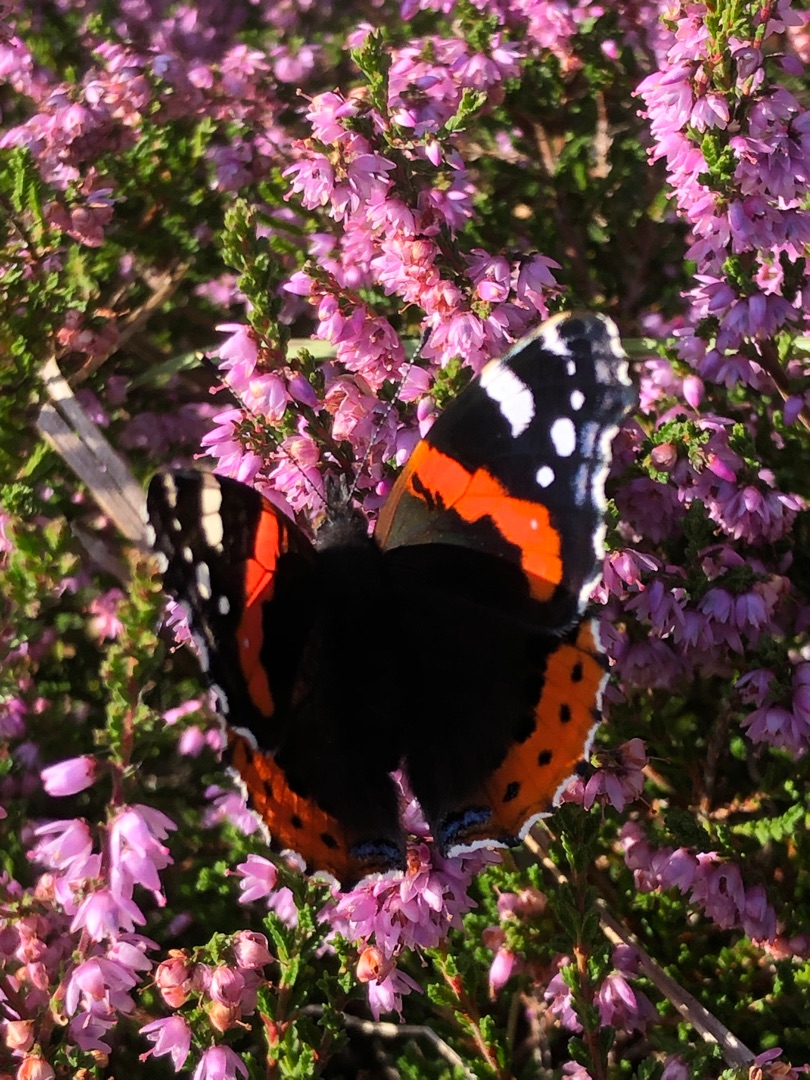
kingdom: Animalia
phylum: Arthropoda
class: Insecta
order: Lepidoptera
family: Nymphalidae
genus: Vanessa
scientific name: Vanessa atalanta
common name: Admiral
